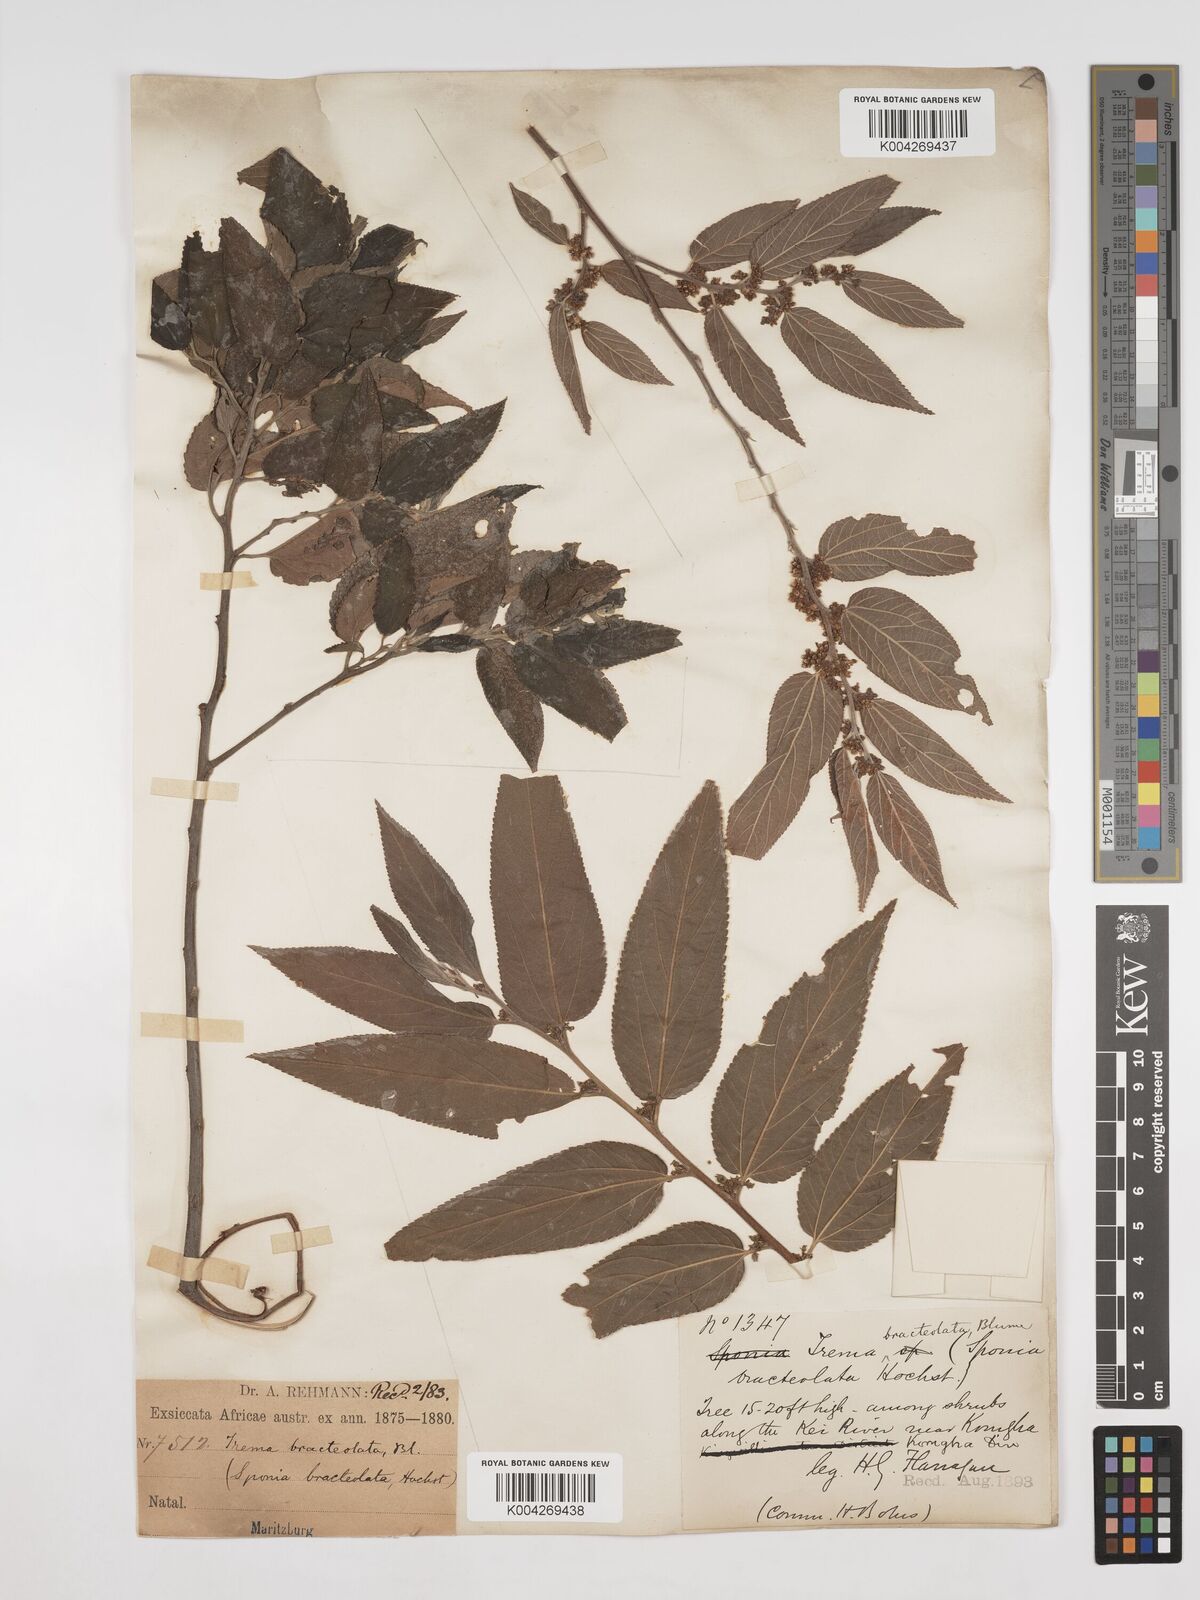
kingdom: Plantae
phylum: Tracheophyta
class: Magnoliopsida
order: Rosales
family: Cannabaceae
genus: Trema
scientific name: Trema orientale
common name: Indian charcoal tree
